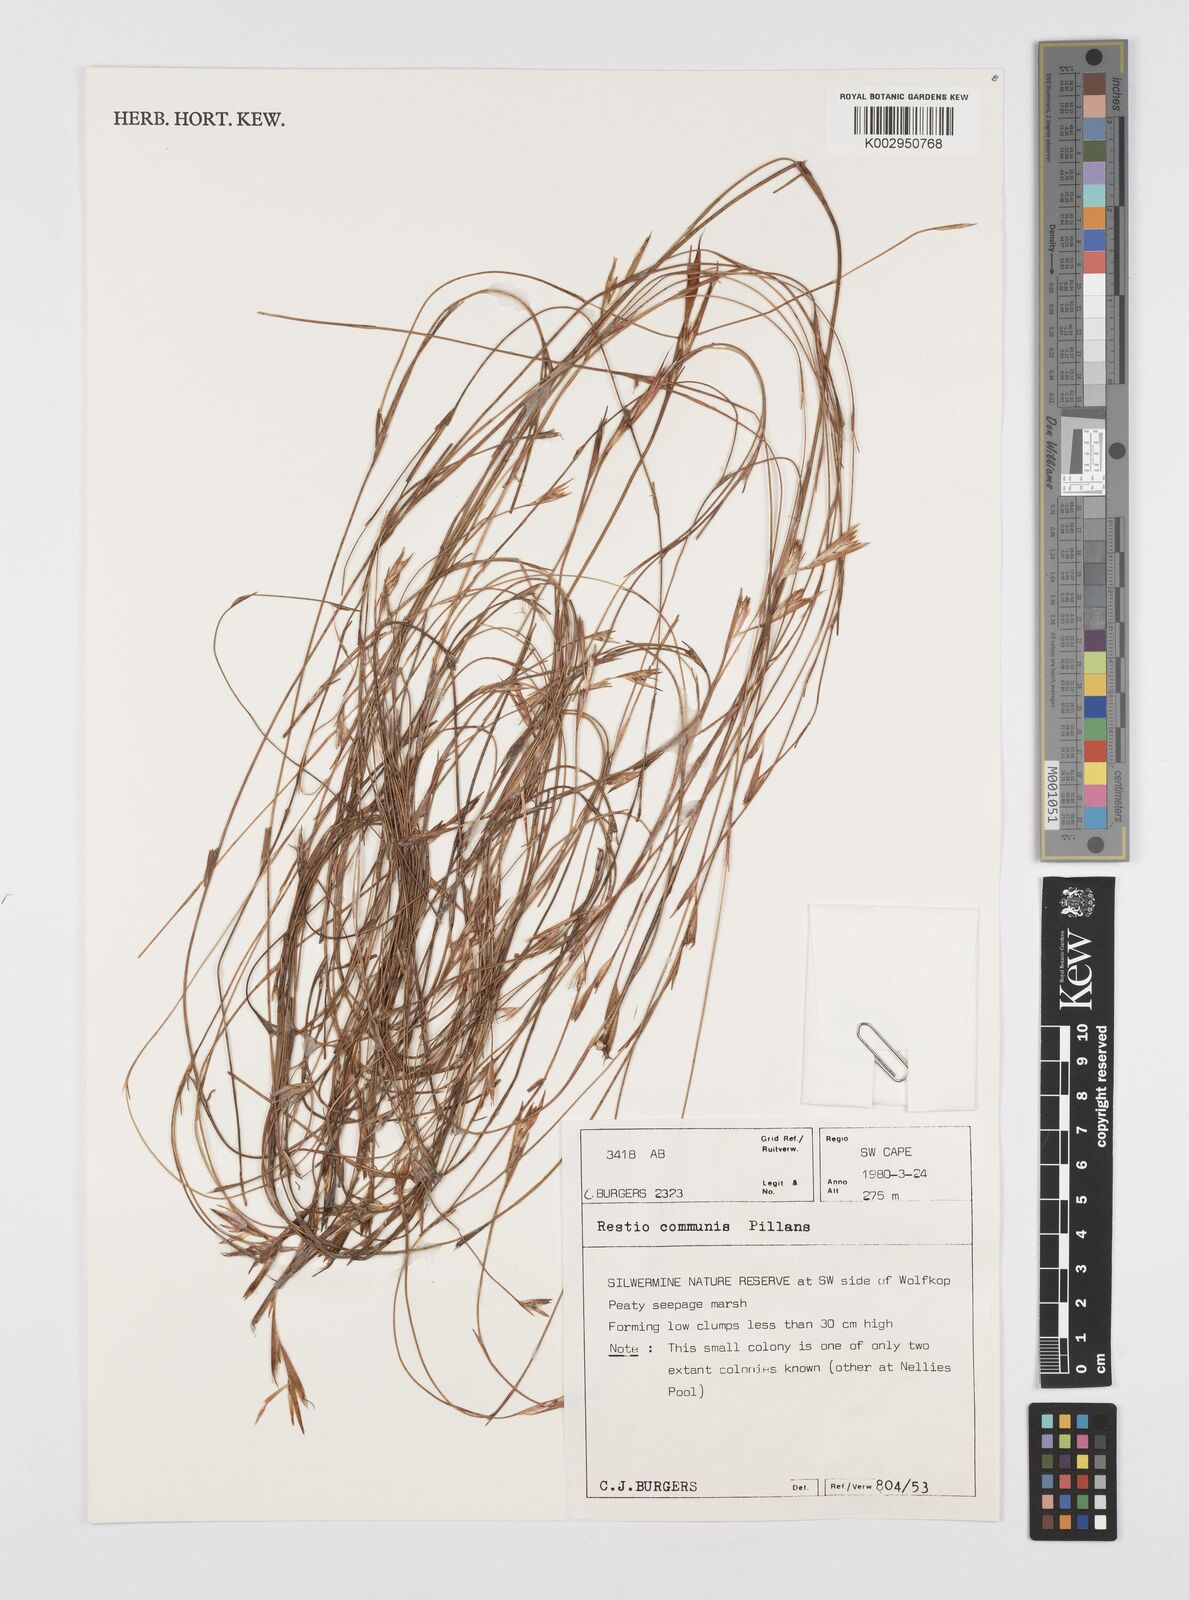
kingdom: Plantae
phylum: Tracheophyta
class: Liliopsida
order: Poales
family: Restionaceae
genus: Restio
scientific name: Restio communis
